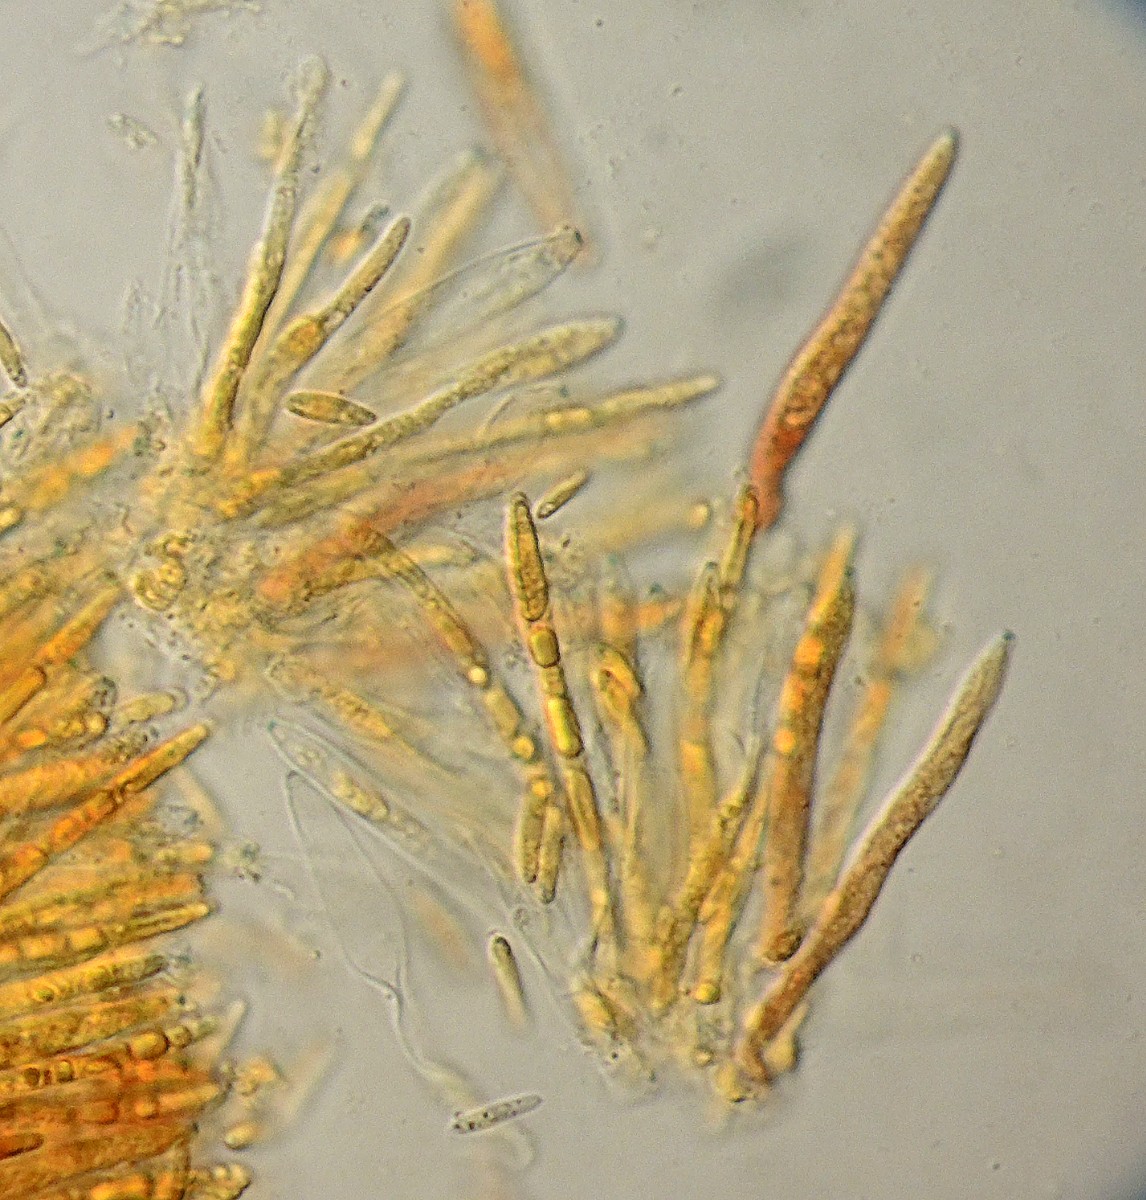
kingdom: Fungi
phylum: Ascomycota
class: Leotiomycetes
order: Helotiales
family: Ploettnerulaceae
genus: Pyrenopeziza
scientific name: Pyrenopeziza
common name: kerneskive
